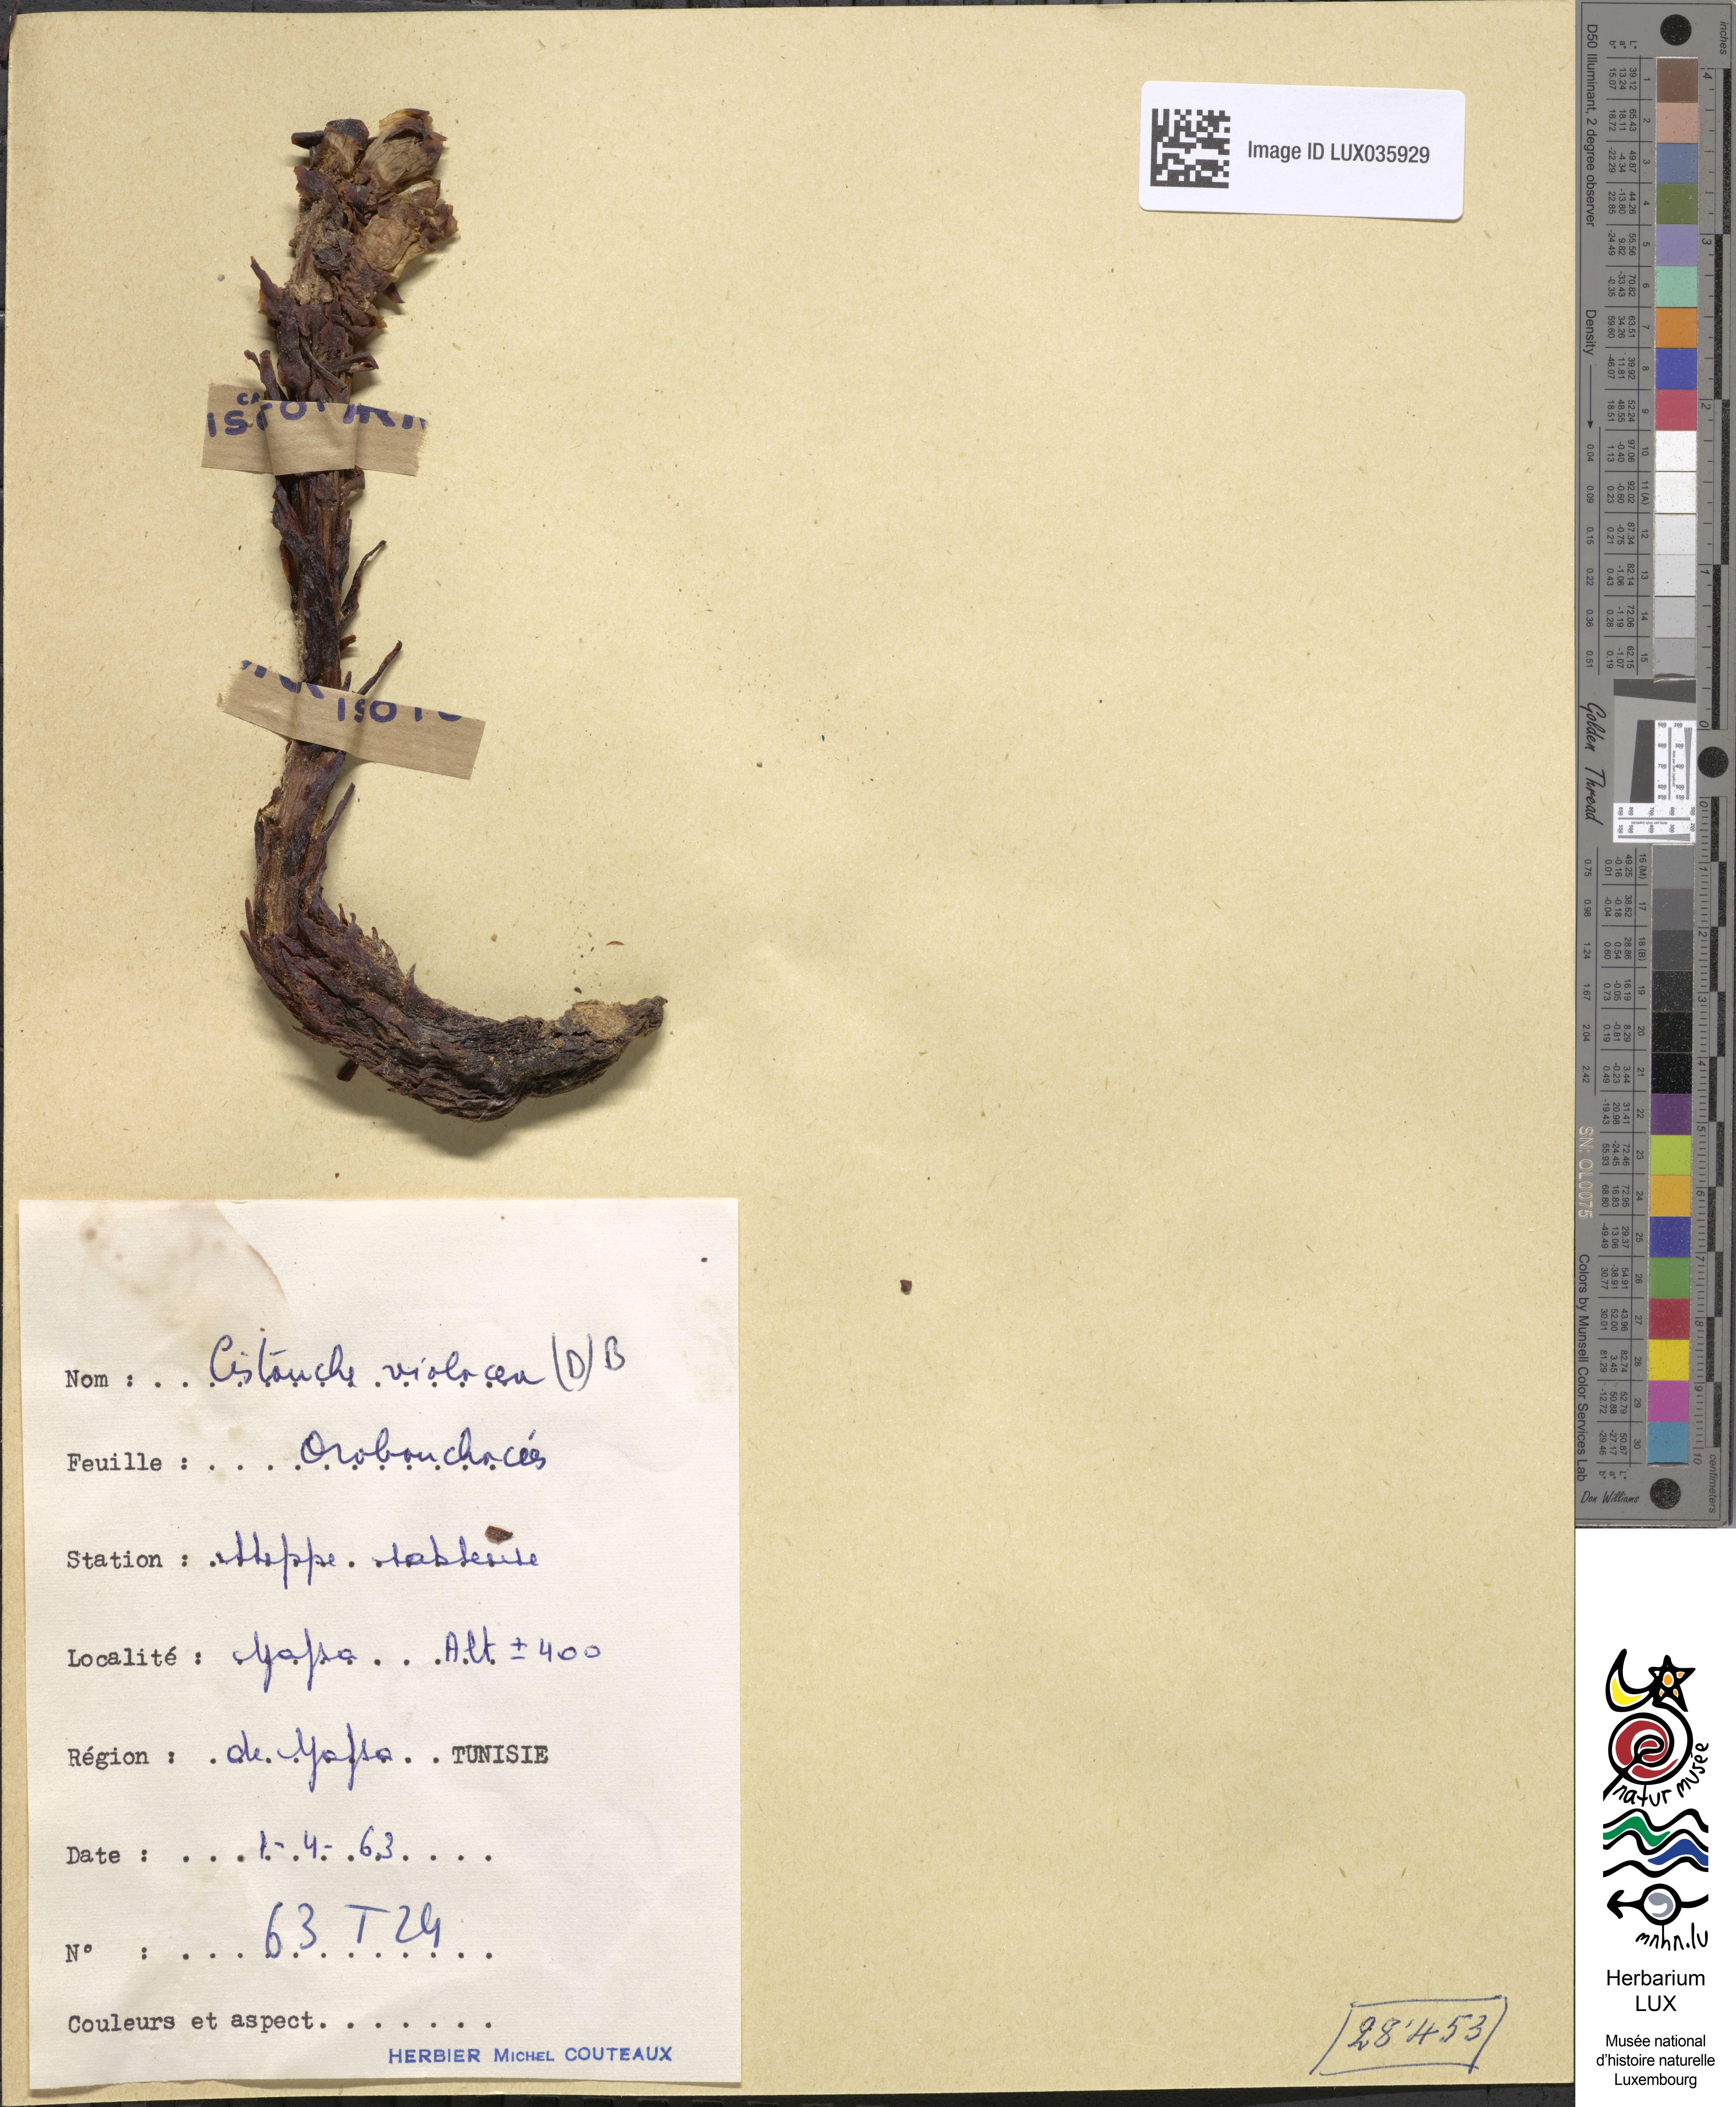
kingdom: Plantae
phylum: Tracheophyta
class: Magnoliopsida
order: Lamiales
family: Orobanchaceae
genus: Cistanche
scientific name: Cistanche violacea
